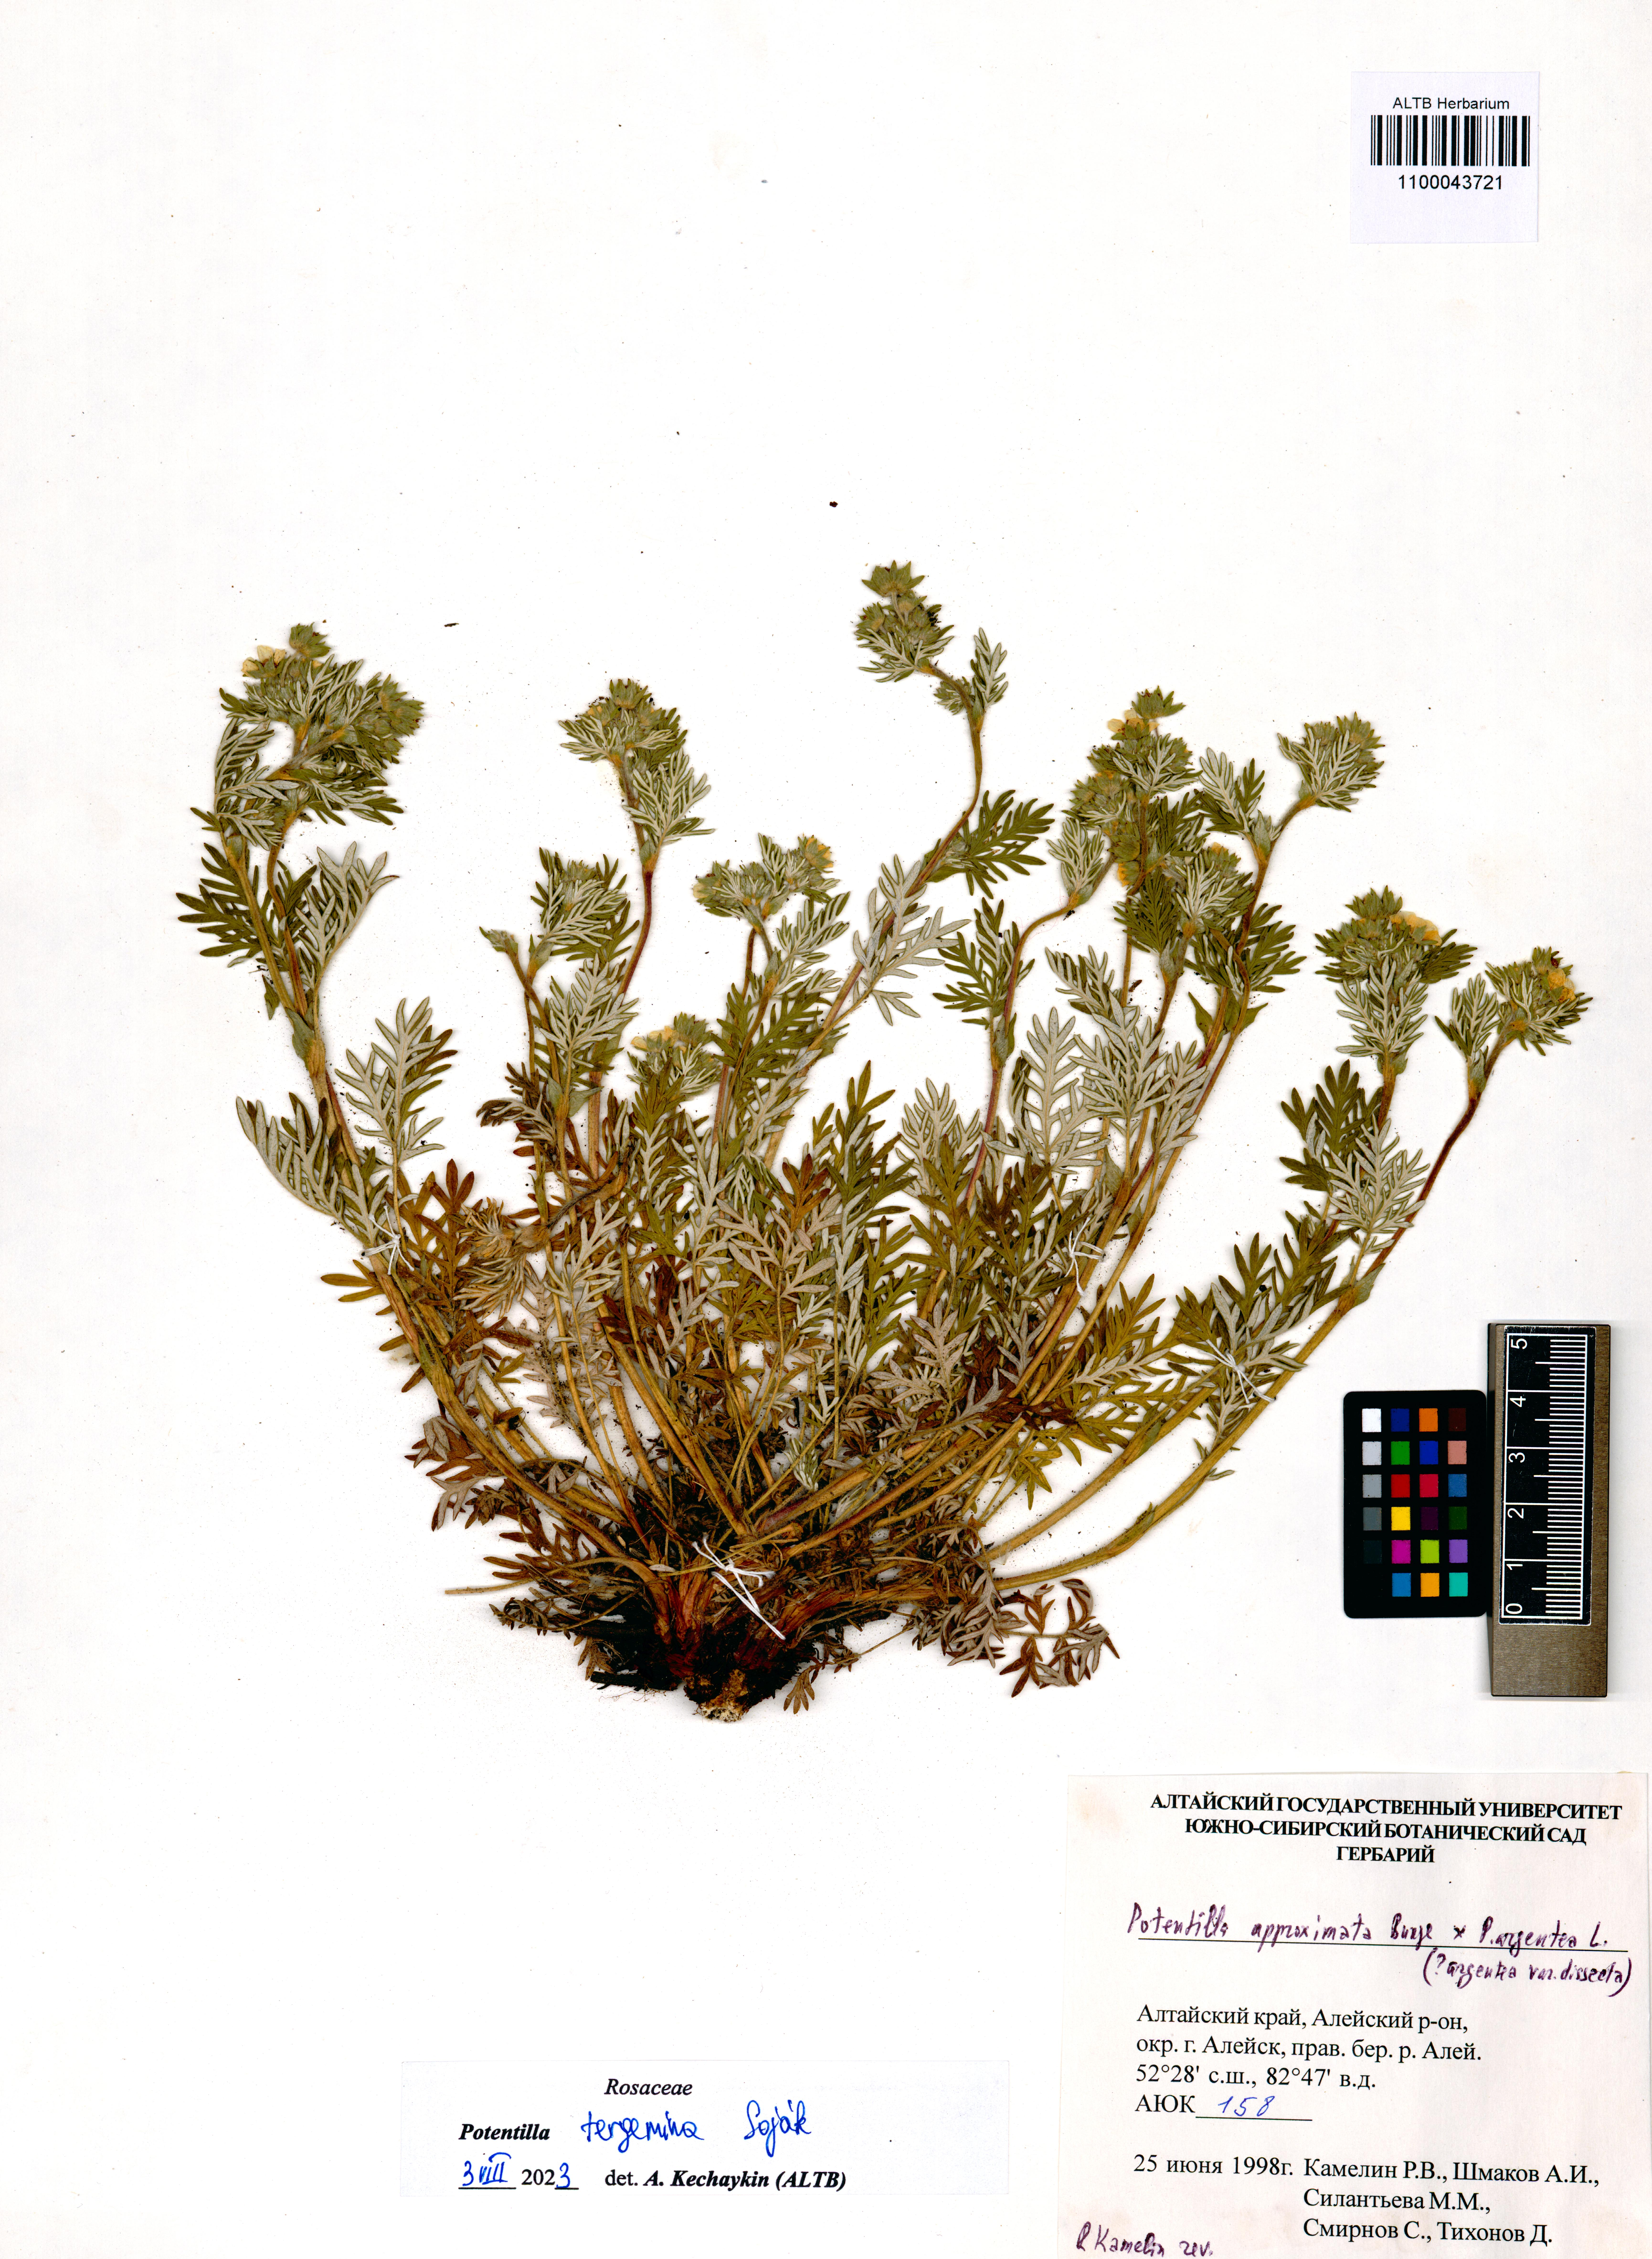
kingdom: Plantae
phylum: Tracheophyta
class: Magnoliopsida
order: Rosales
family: Rosaceae
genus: Potentilla
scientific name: Potentilla tergemina
